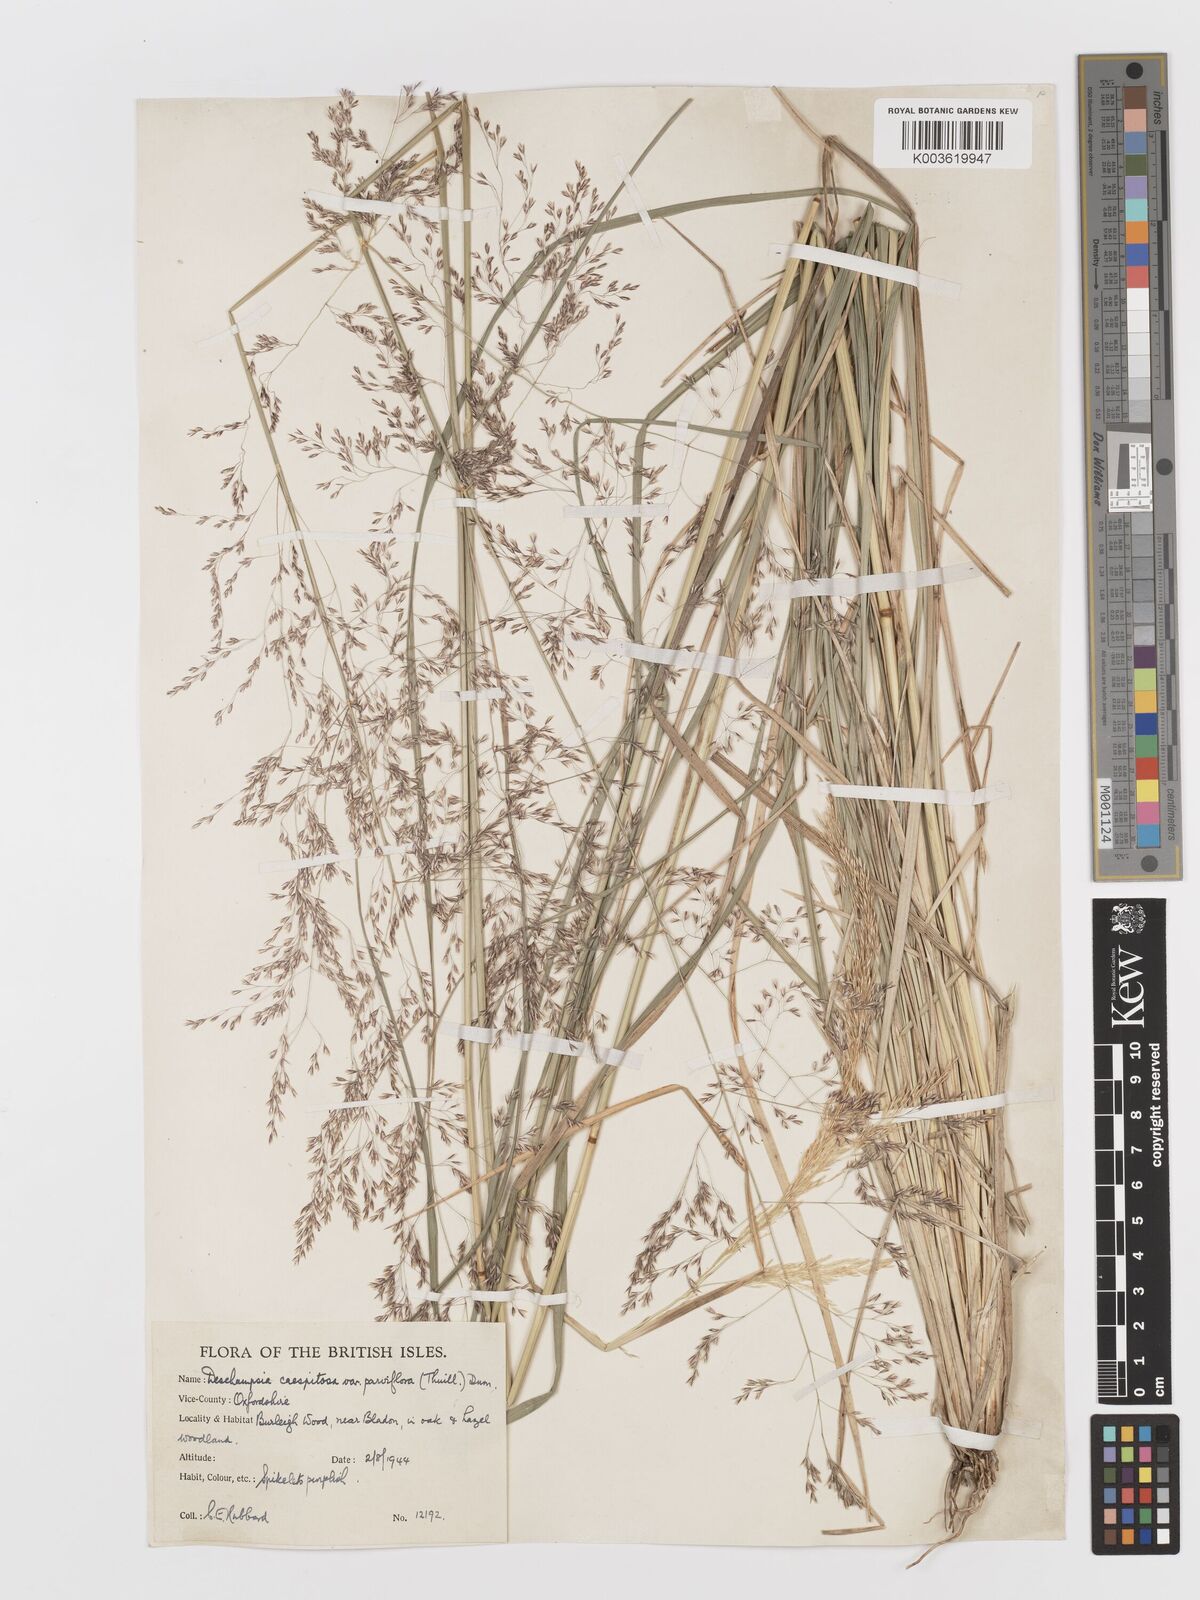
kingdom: Plantae
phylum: Tracheophyta
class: Liliopsida
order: Poales
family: Poaceae
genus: Deschampsia
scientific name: Deschampsia
